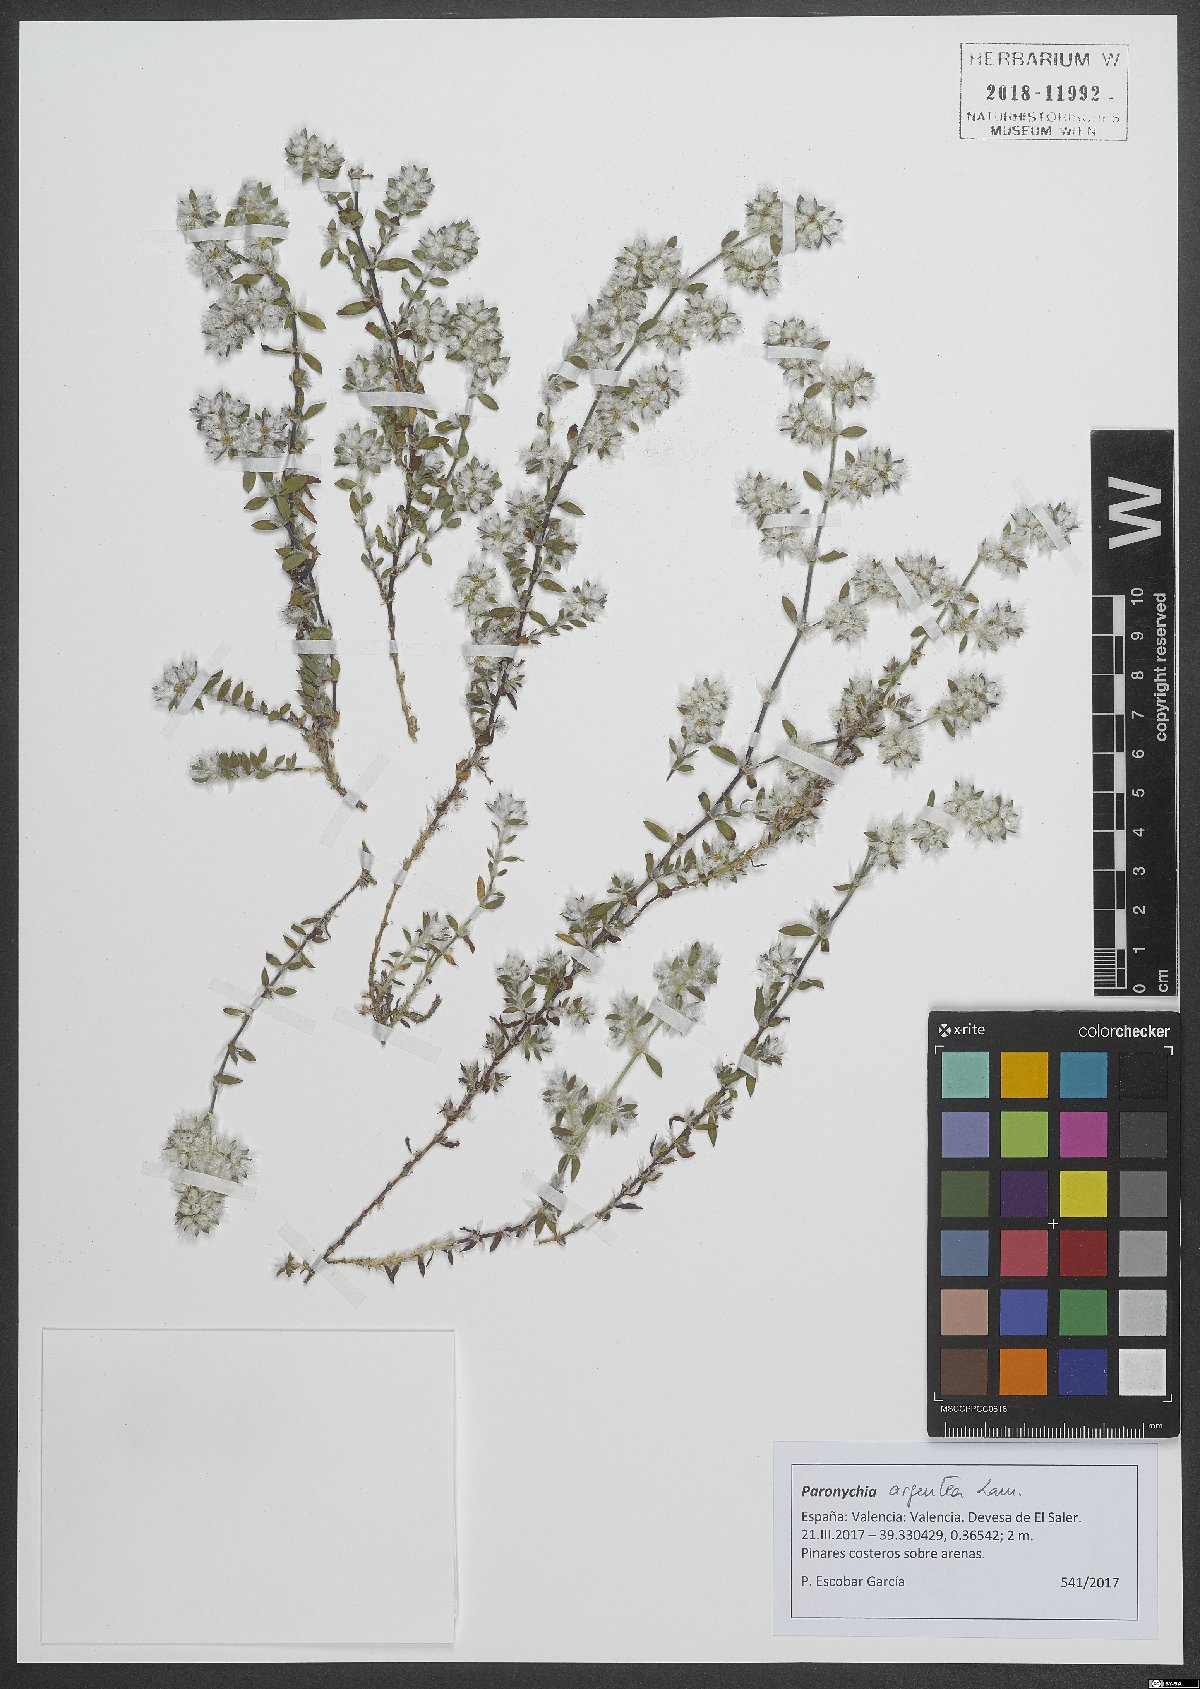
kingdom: Plantae
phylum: Tracheophyta
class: Magnoliopsida
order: Caryophyllales
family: Caryophyllaceae
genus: Paronychia
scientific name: Paronychia argentea
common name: Silver nailroot
